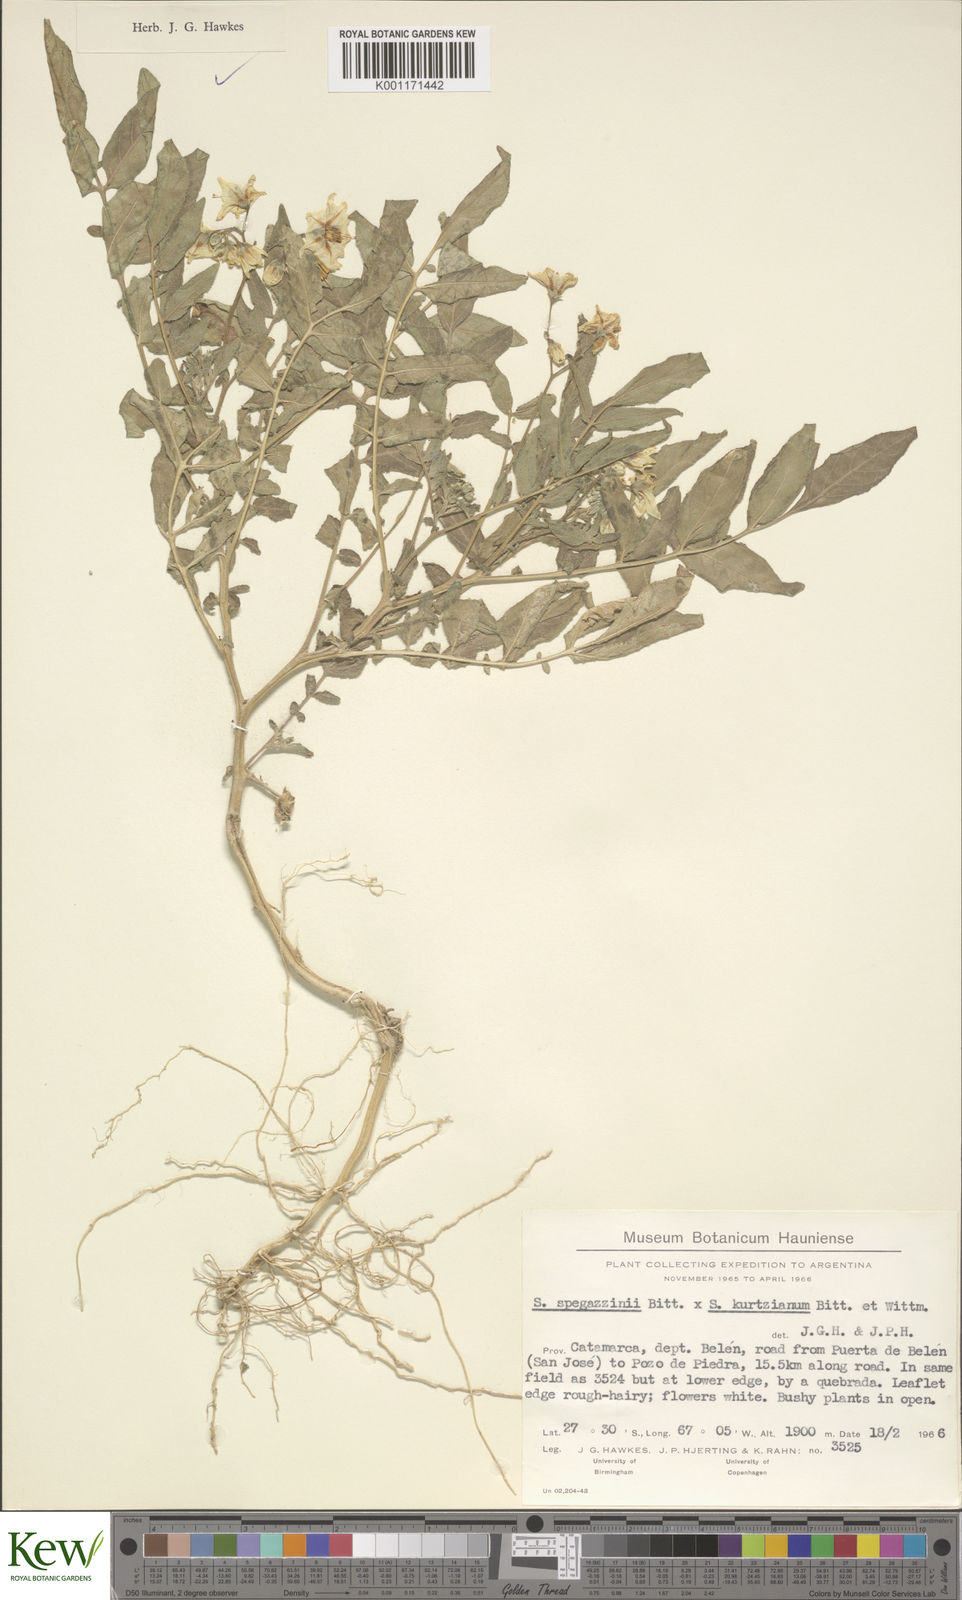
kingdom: Plantae
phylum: Tracheophyta
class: Magnoliopsida
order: Solanales
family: Solanaceae
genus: Solanum
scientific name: Solanum brevicaule
